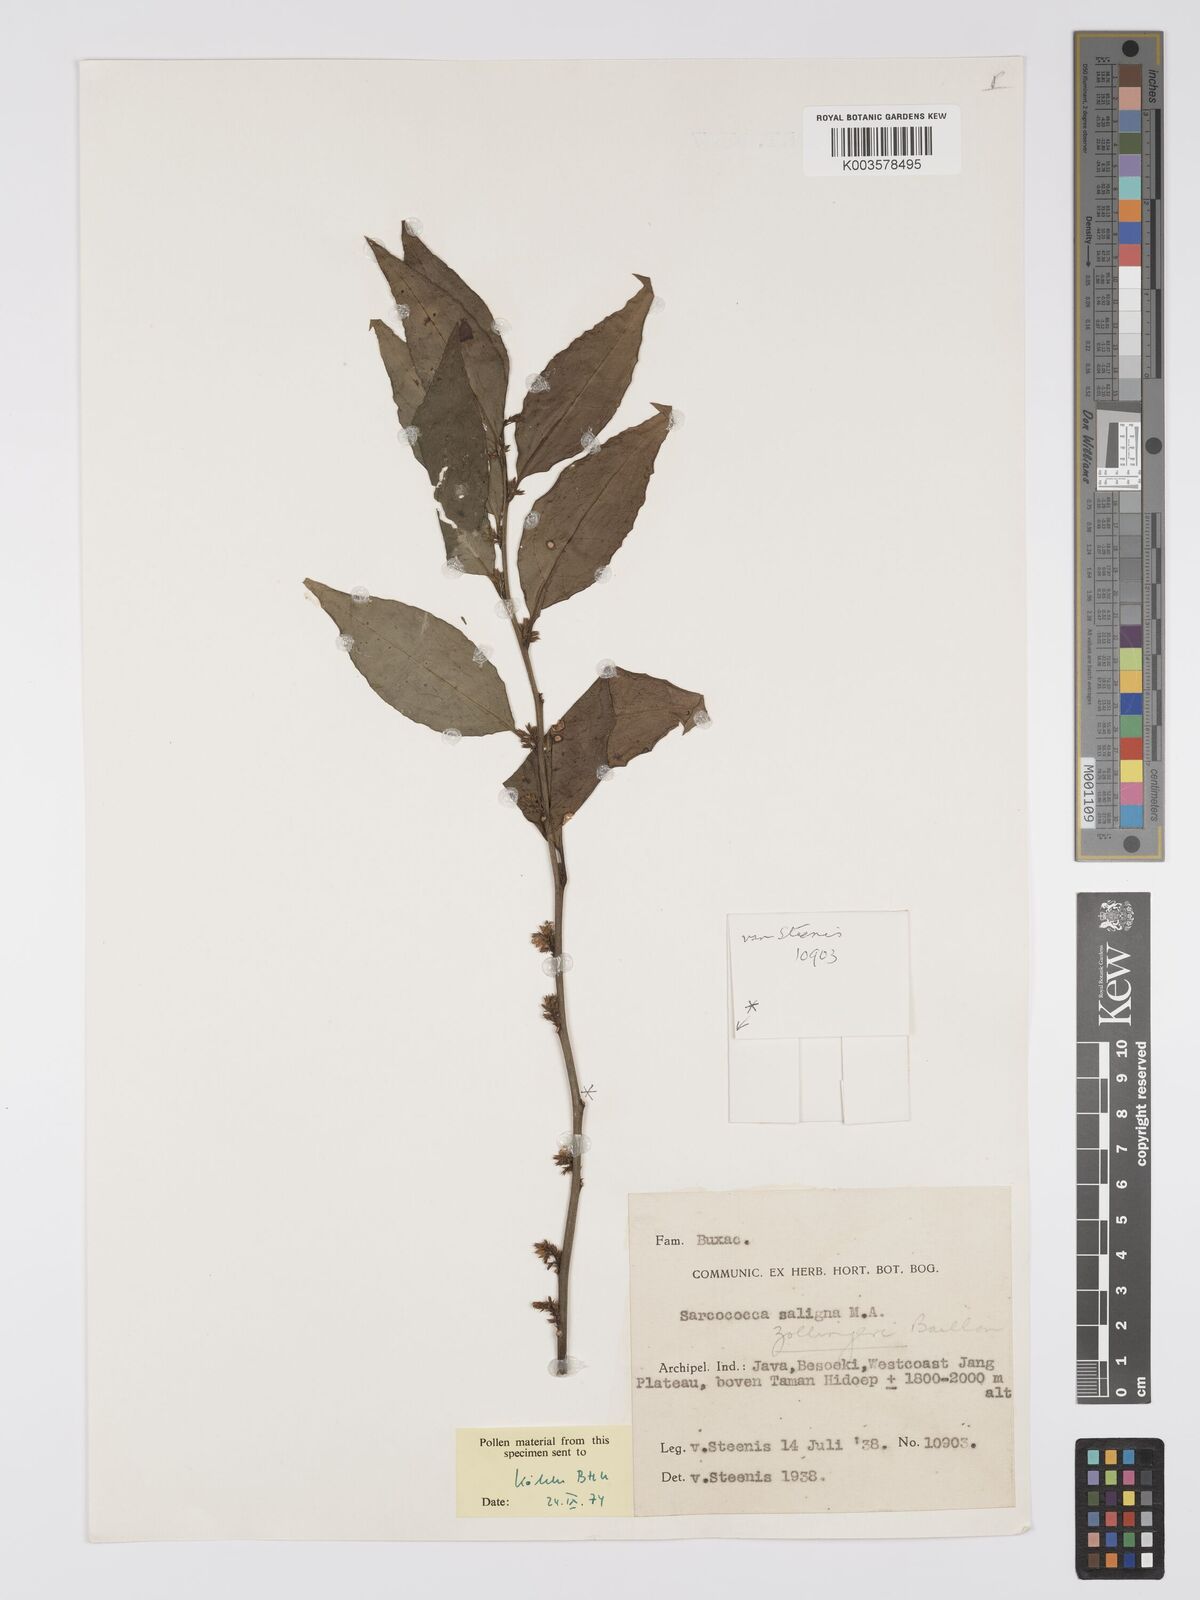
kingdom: Plantae
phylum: Tracheophyta
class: Magnoliopsida
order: Buxales
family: Buxaceae
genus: Sarcococca
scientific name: Sarcococca saligna
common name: Willow-leaf sweet-box
